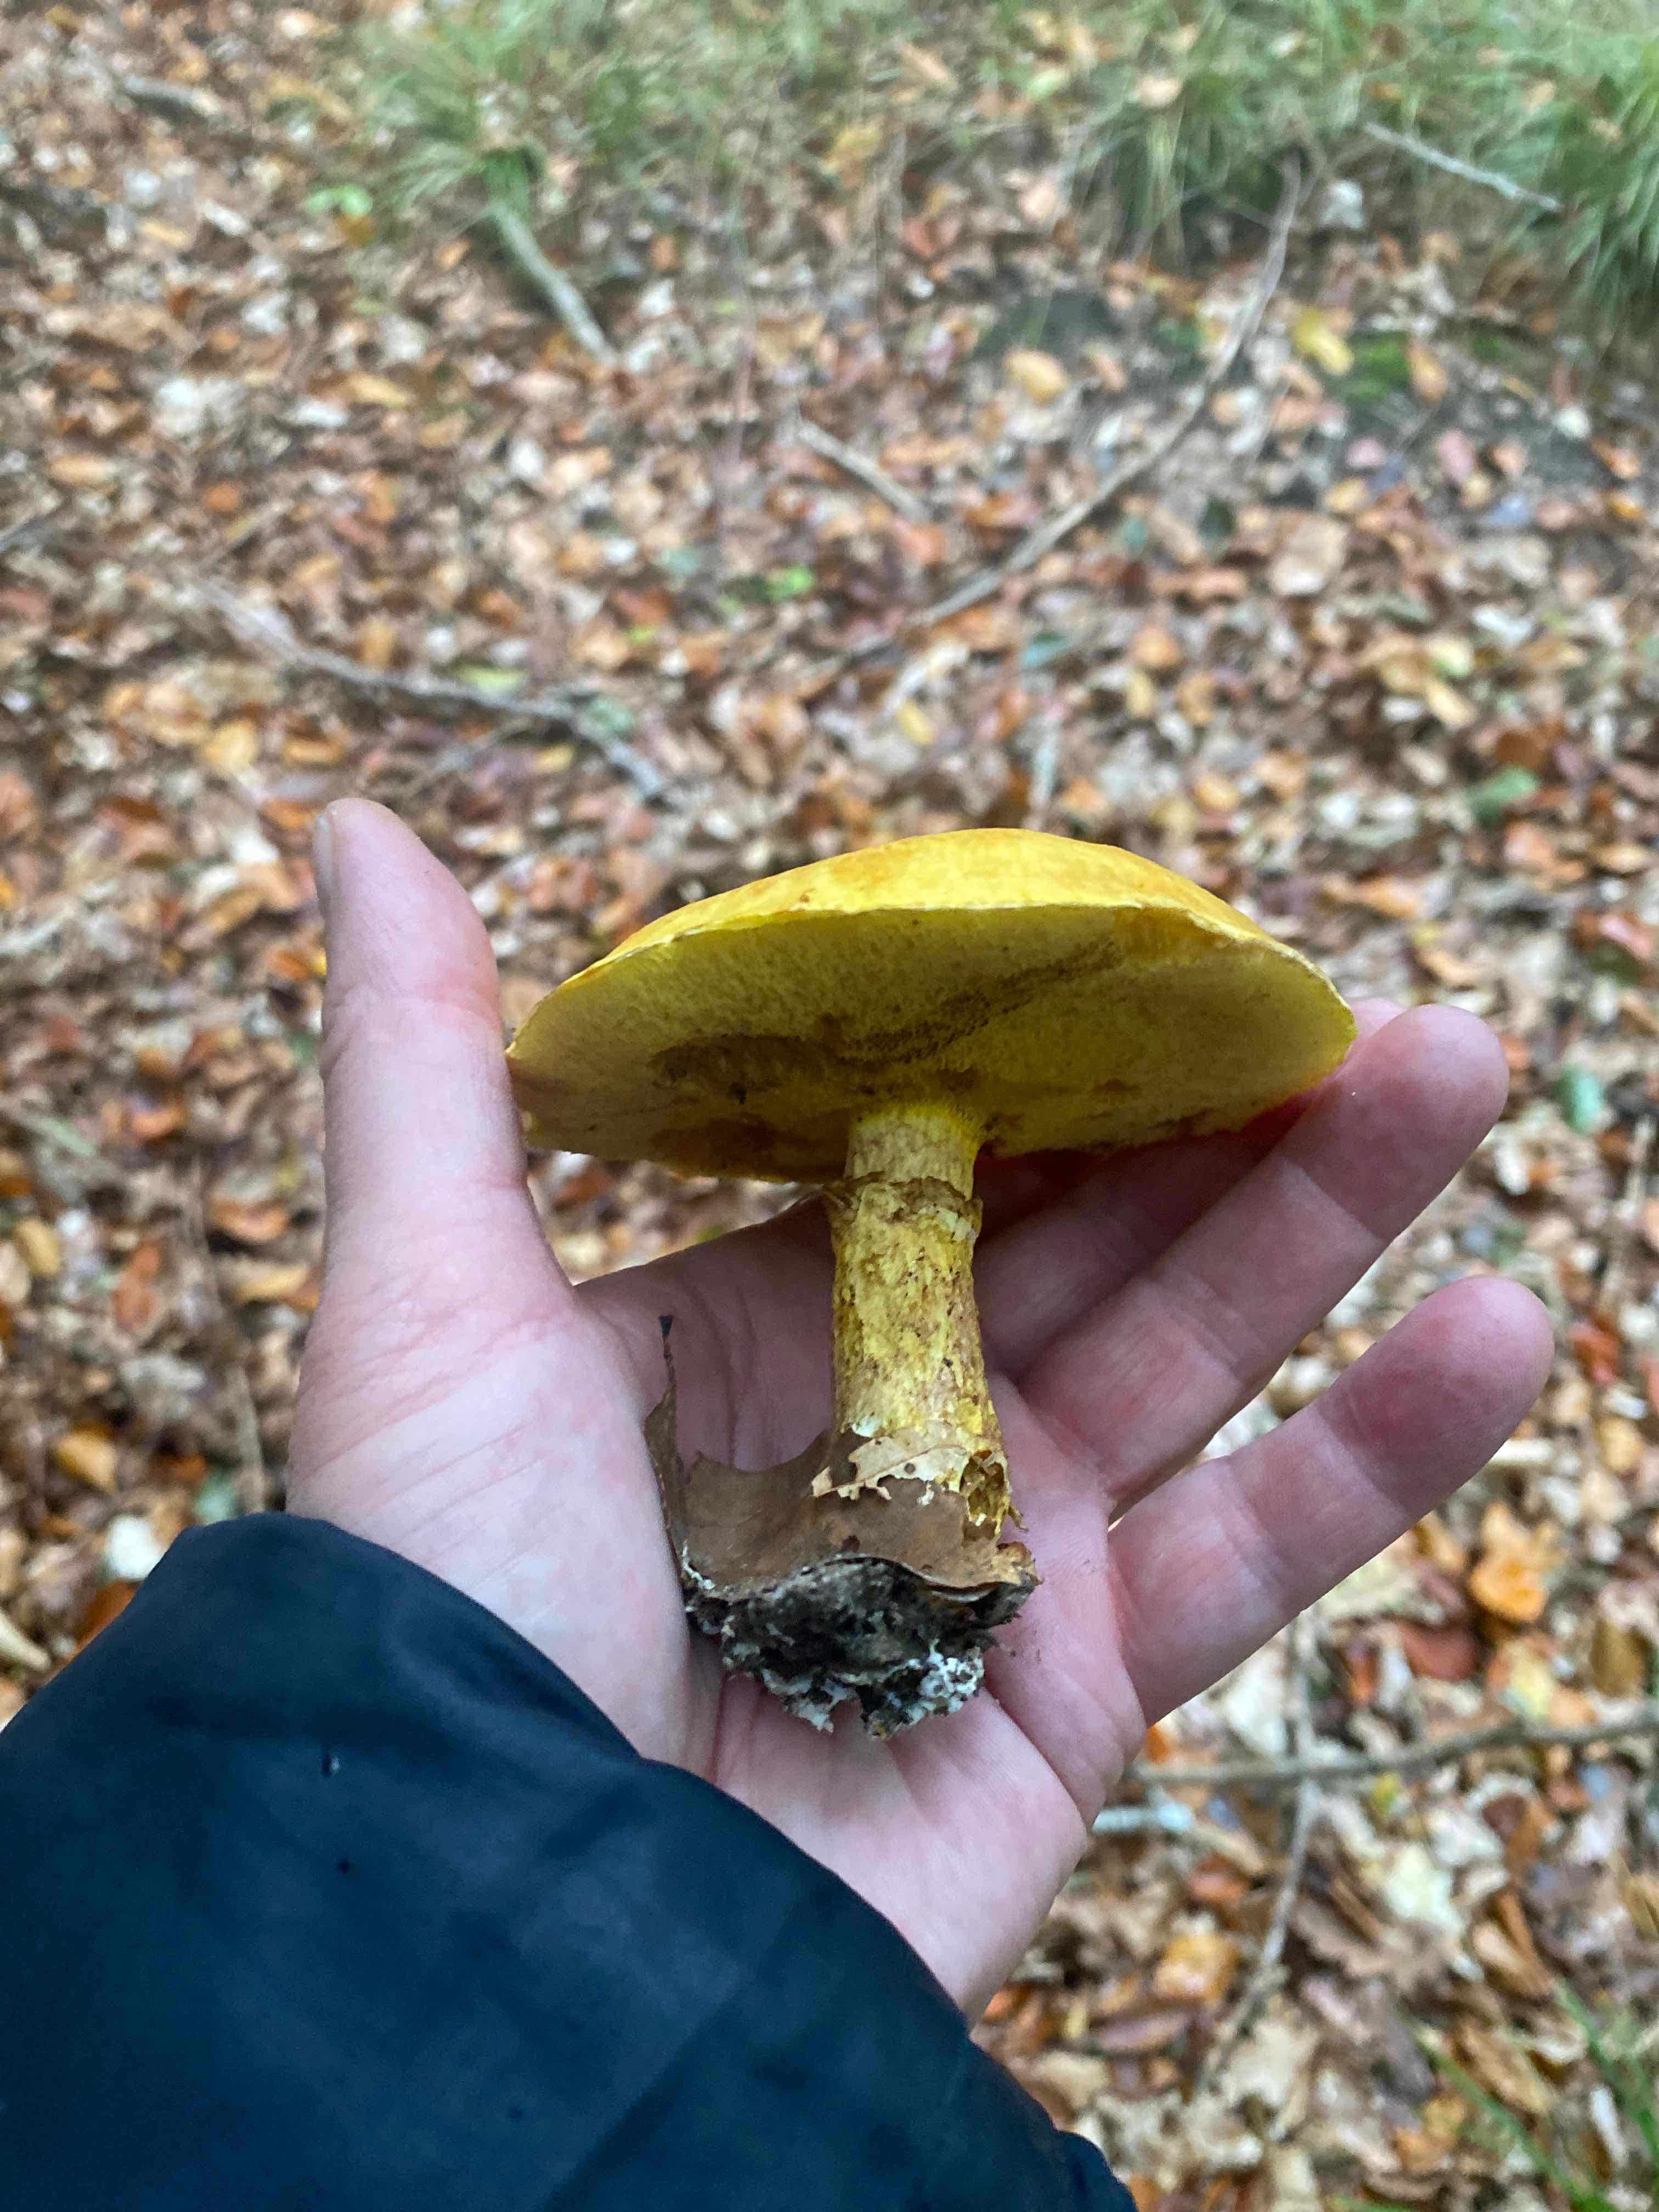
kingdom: Fungi
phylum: Basidiomycota
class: Agaricomycetes
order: Boletales
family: Suillaceae
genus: Suillus
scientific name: Suillus grevillei
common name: lærke-slimrørhat
